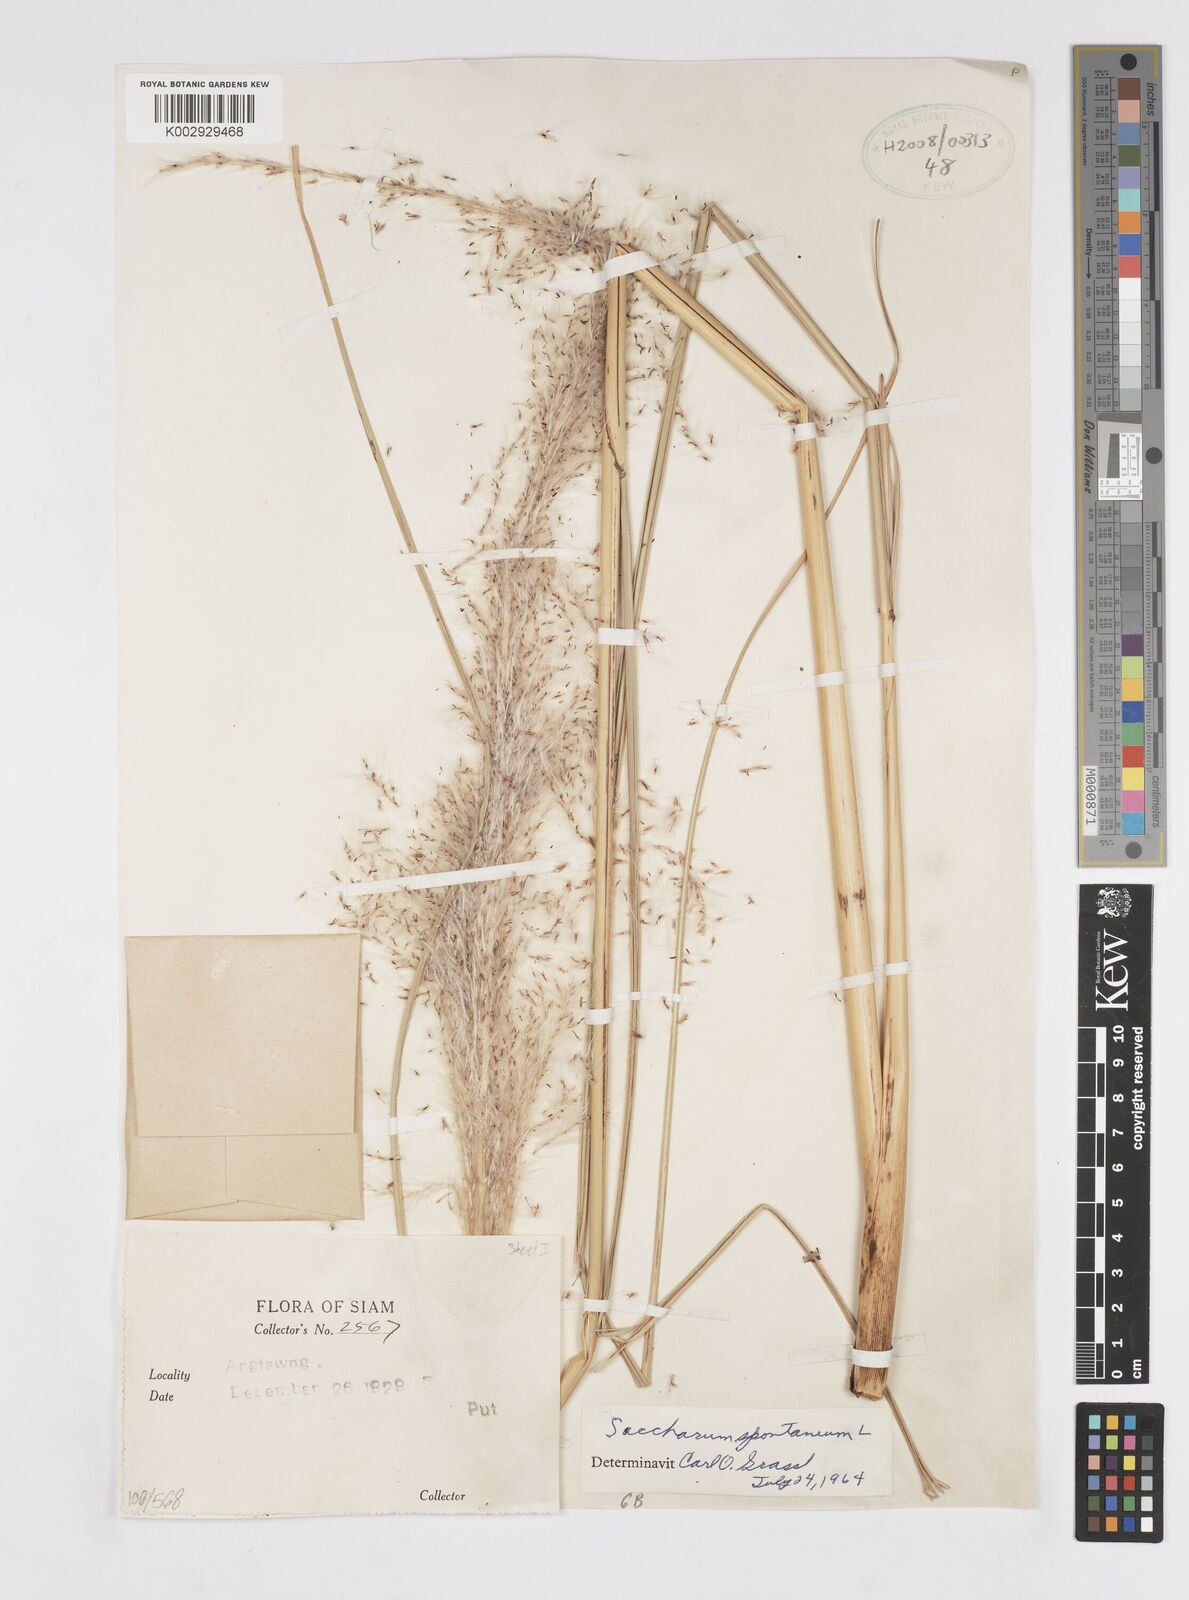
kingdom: Plantae
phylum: Tracheophyta
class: Liliopsida
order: Poales
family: Poaceae
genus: Saccharum
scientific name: Saccharum spontaneum
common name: Wild sugarcane
